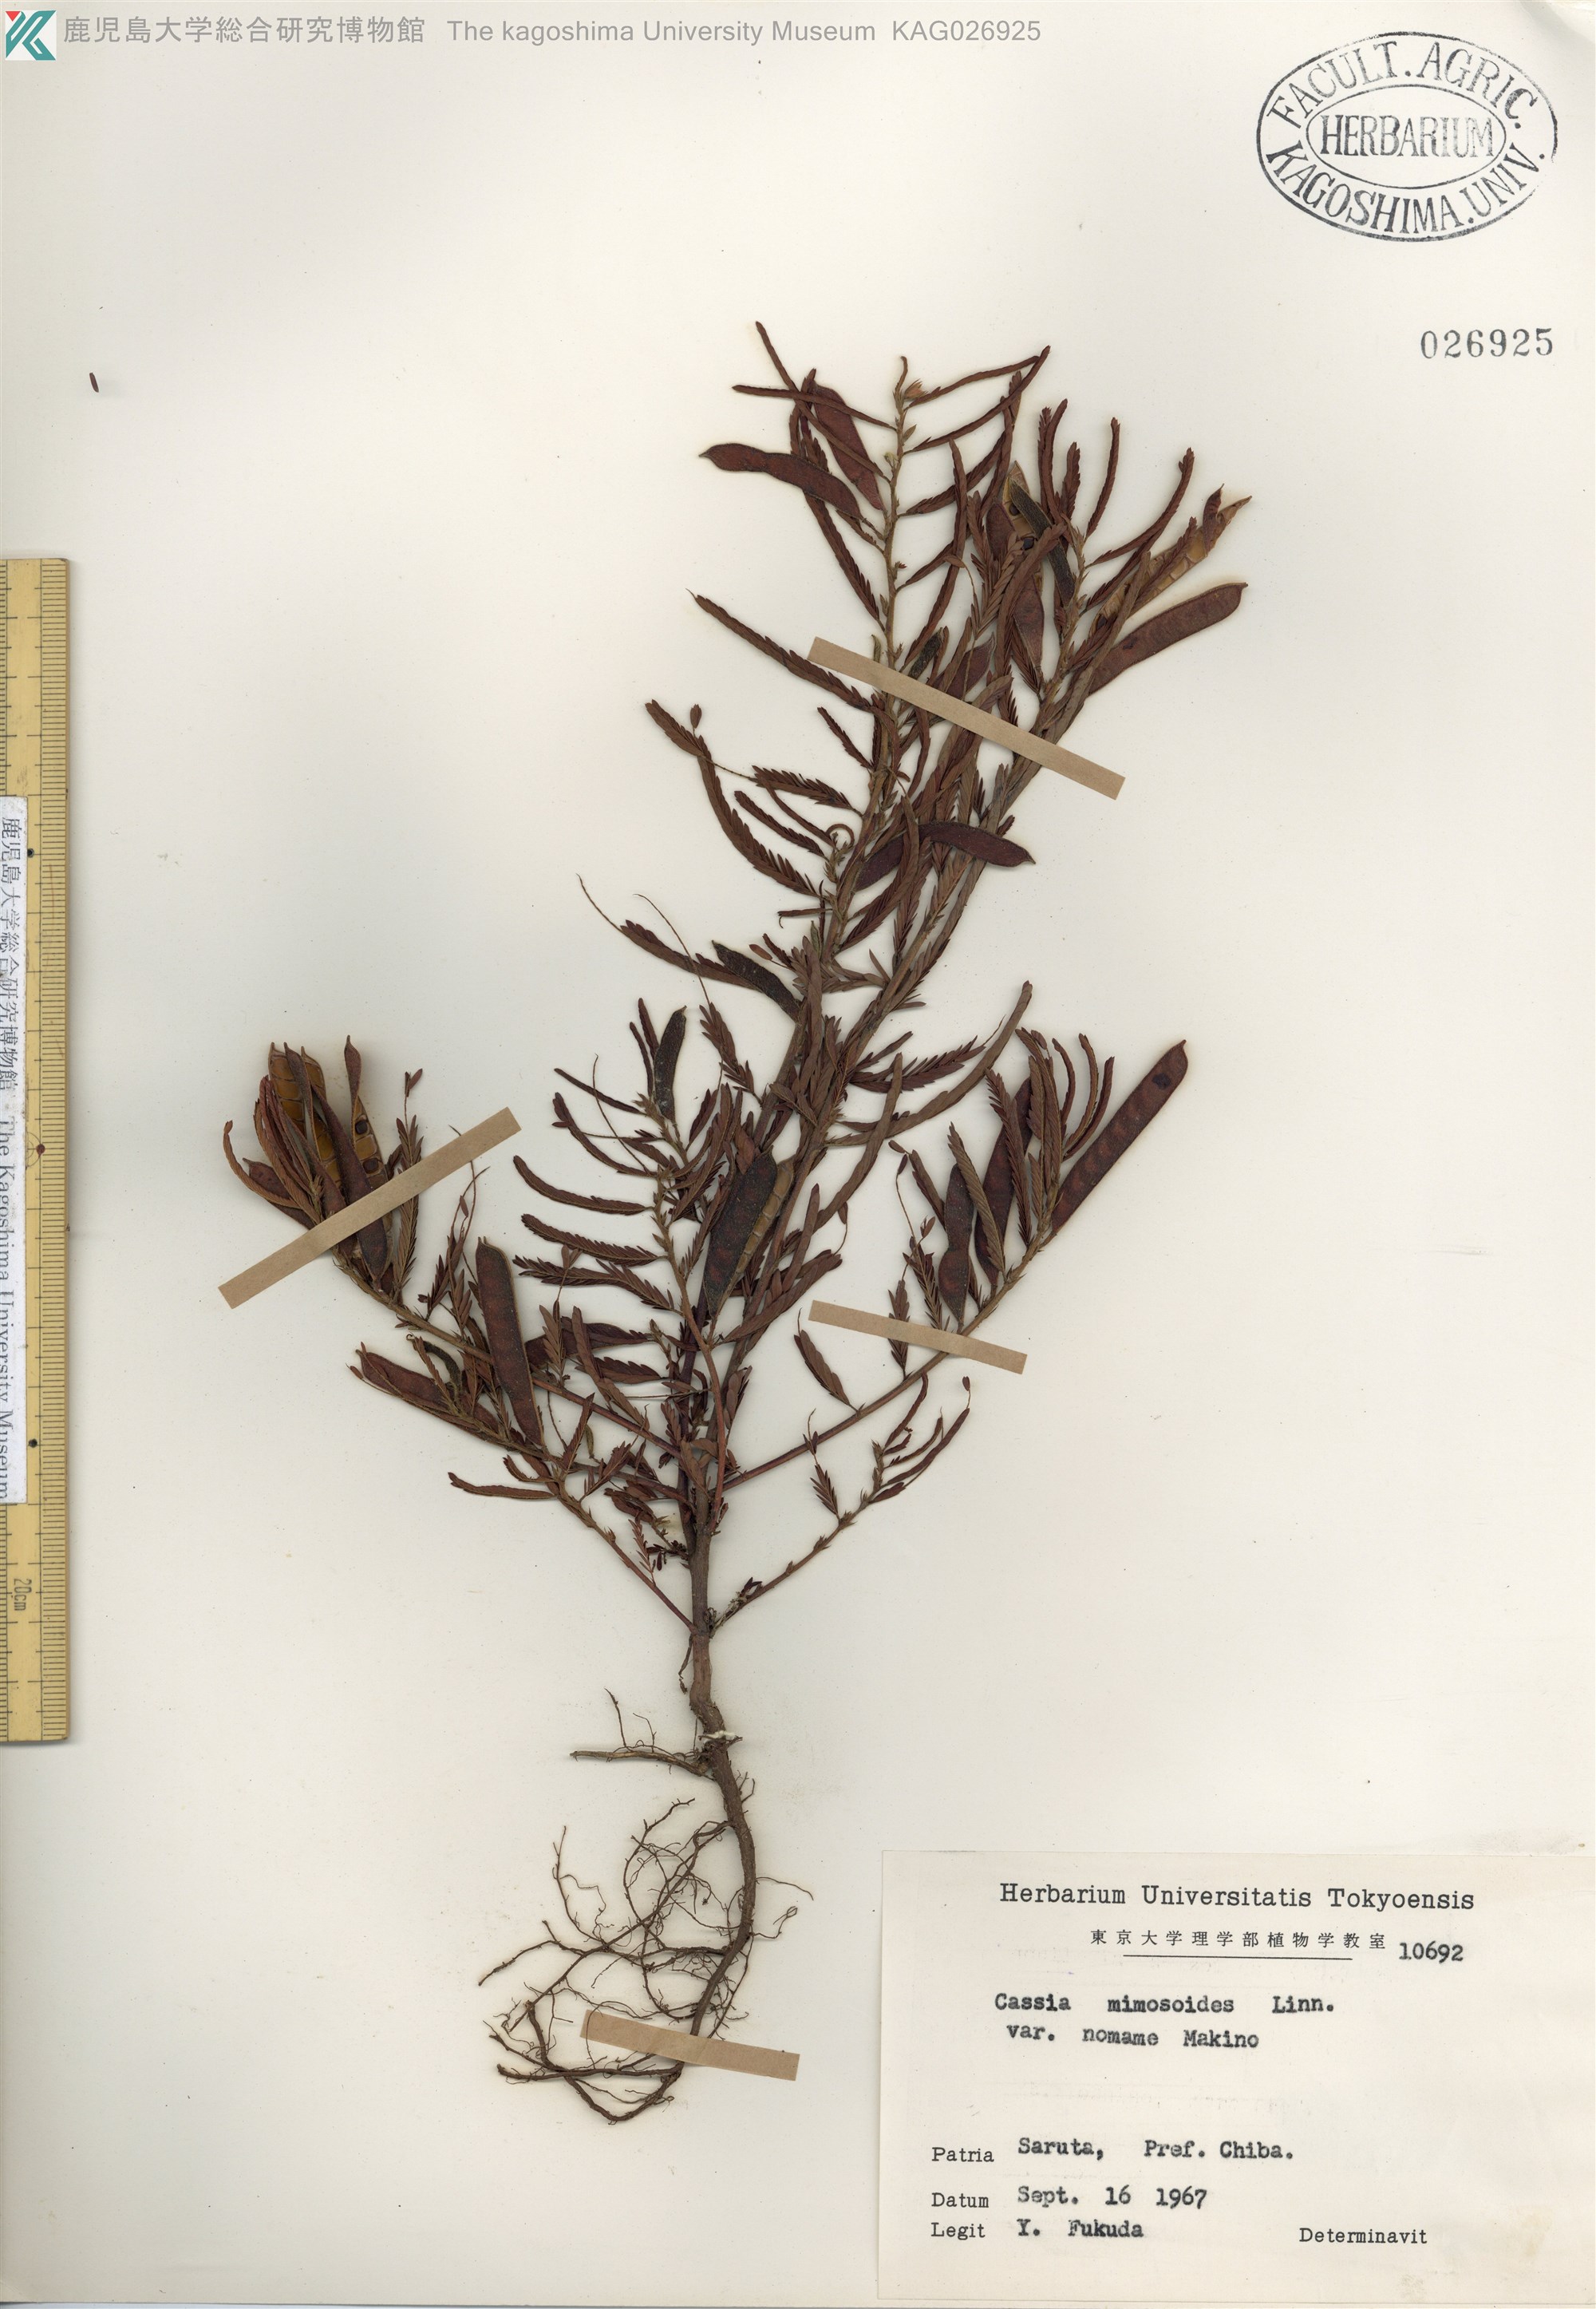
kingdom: Plantae
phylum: Tracheophyta
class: Magnoliopsida
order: Fabales
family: Fabaceae
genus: Chamaecrista
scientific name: Chamaecrista nomame
